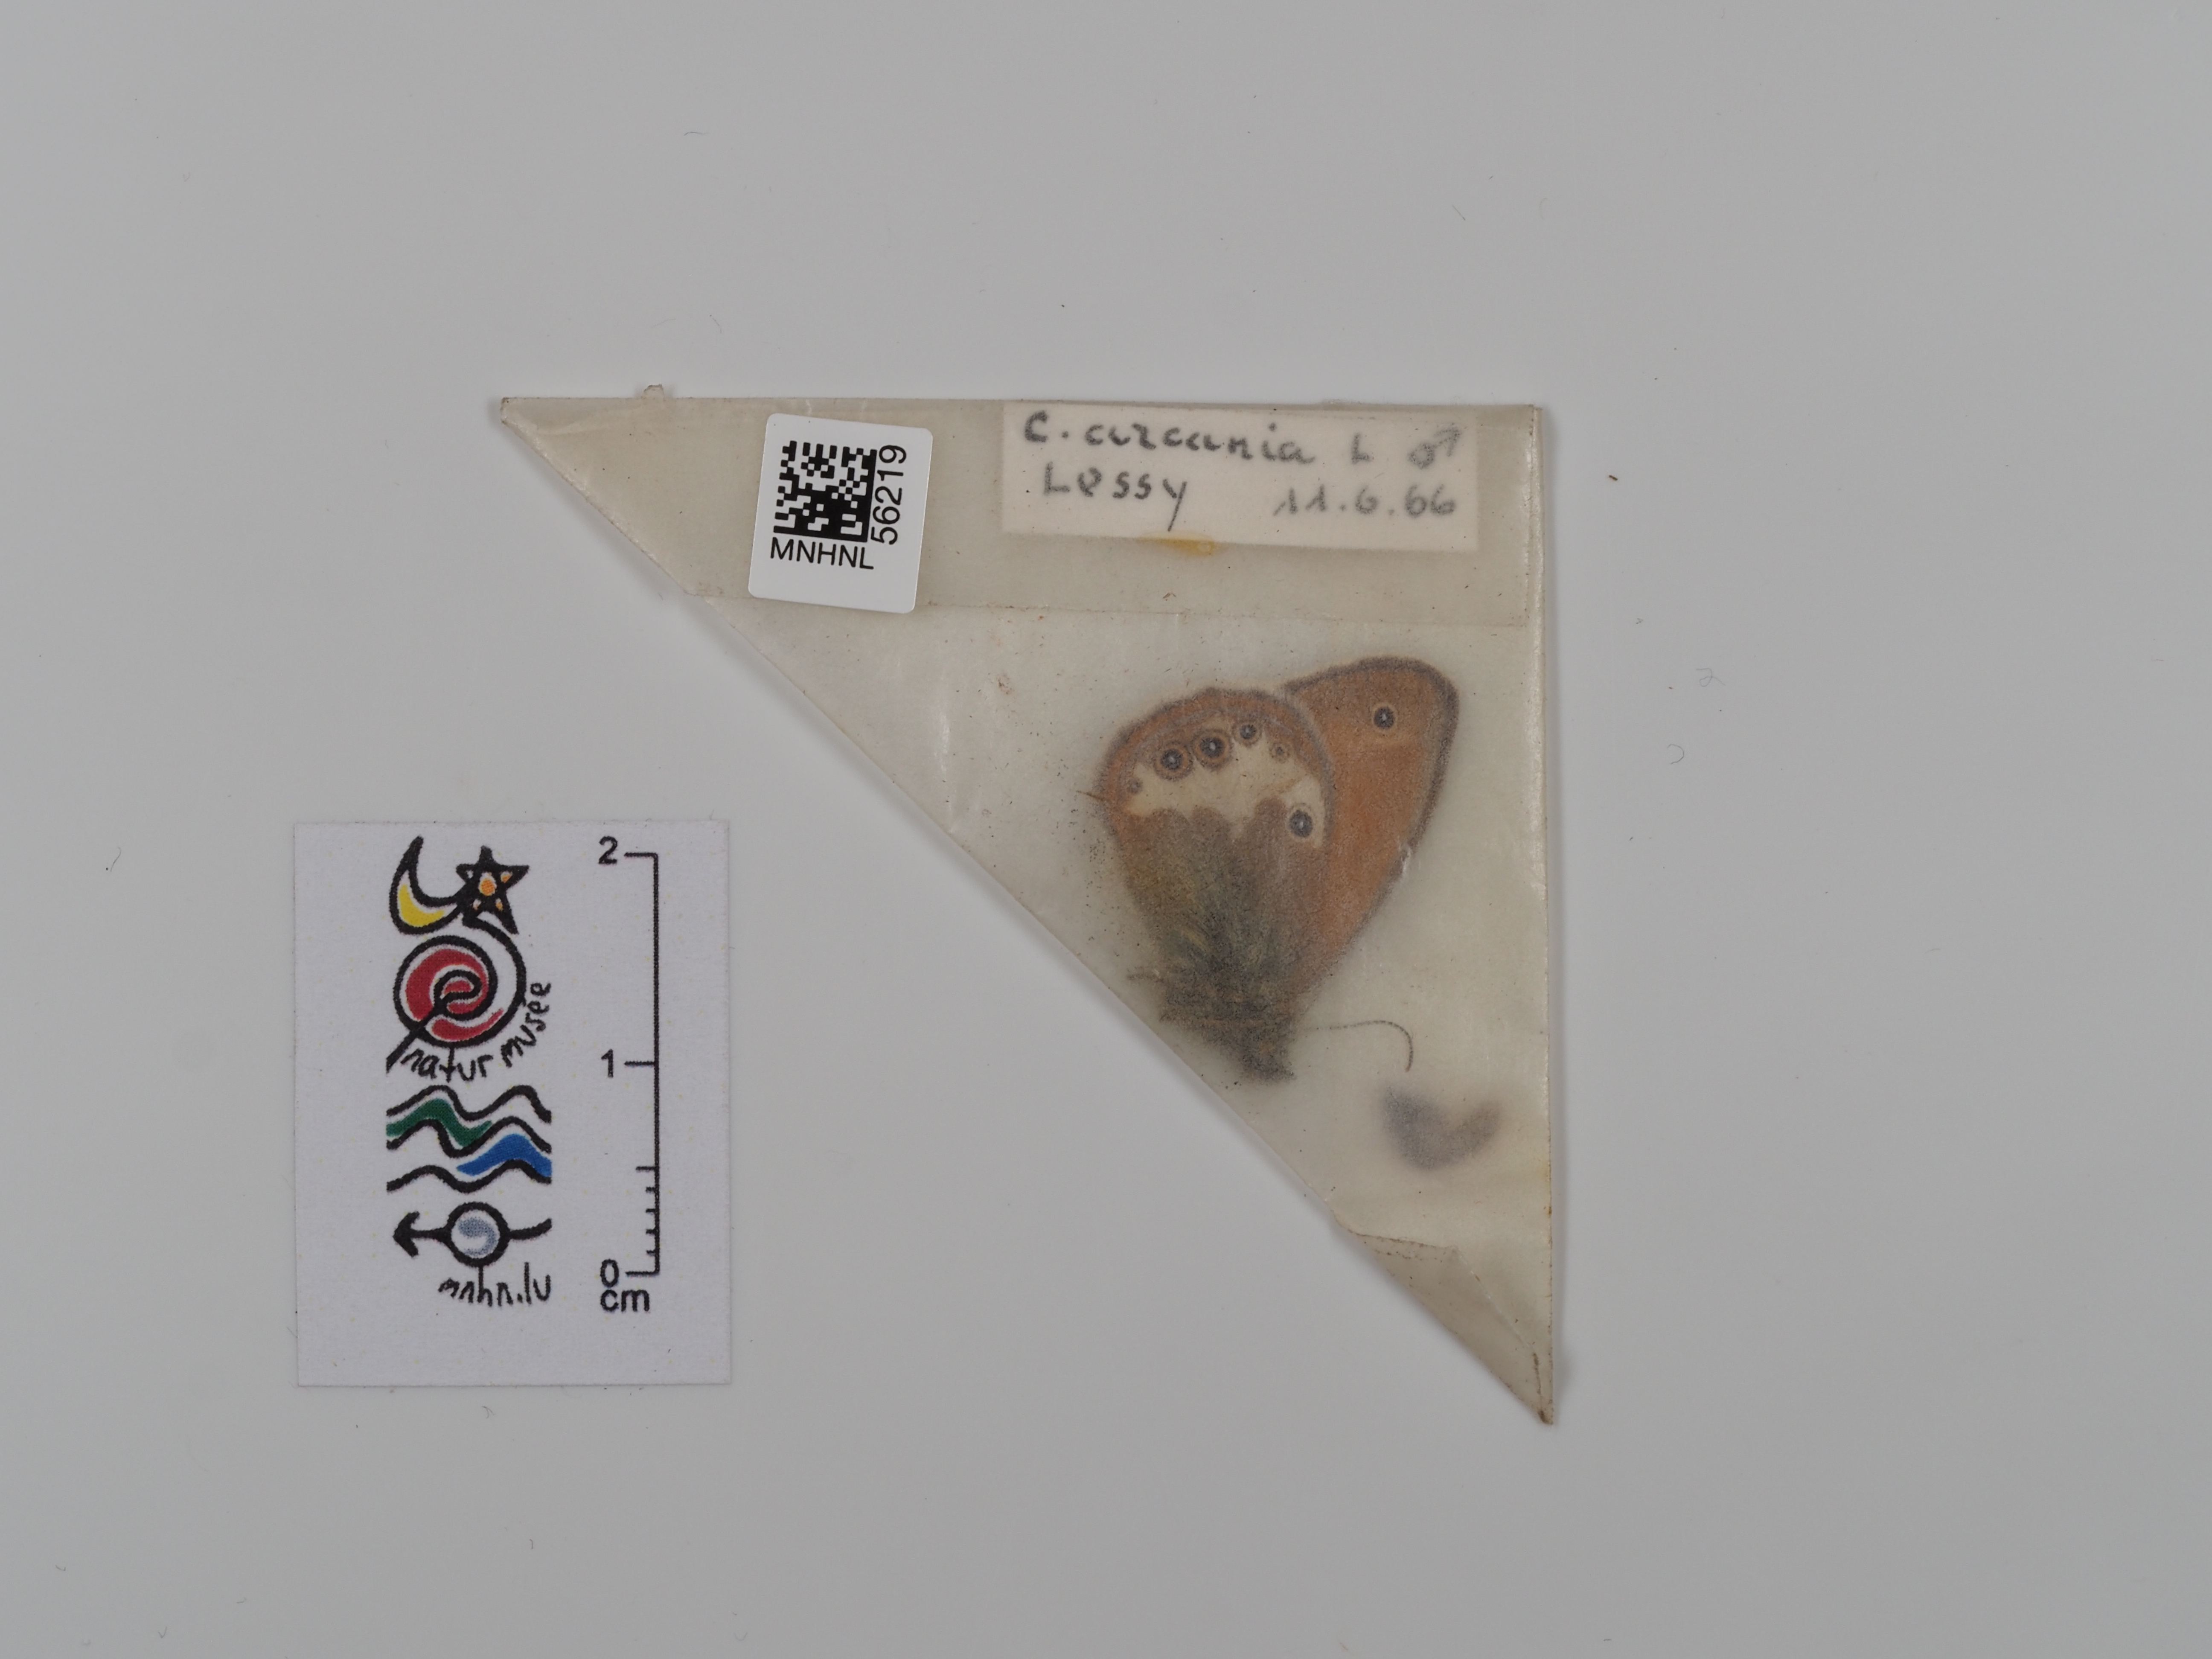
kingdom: Animalia
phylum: Arthropoda
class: Insecta
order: Lepidoptera
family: Nymphalidae
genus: Coenonympha
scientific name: Coenonympha arcania
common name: Pearly heath
